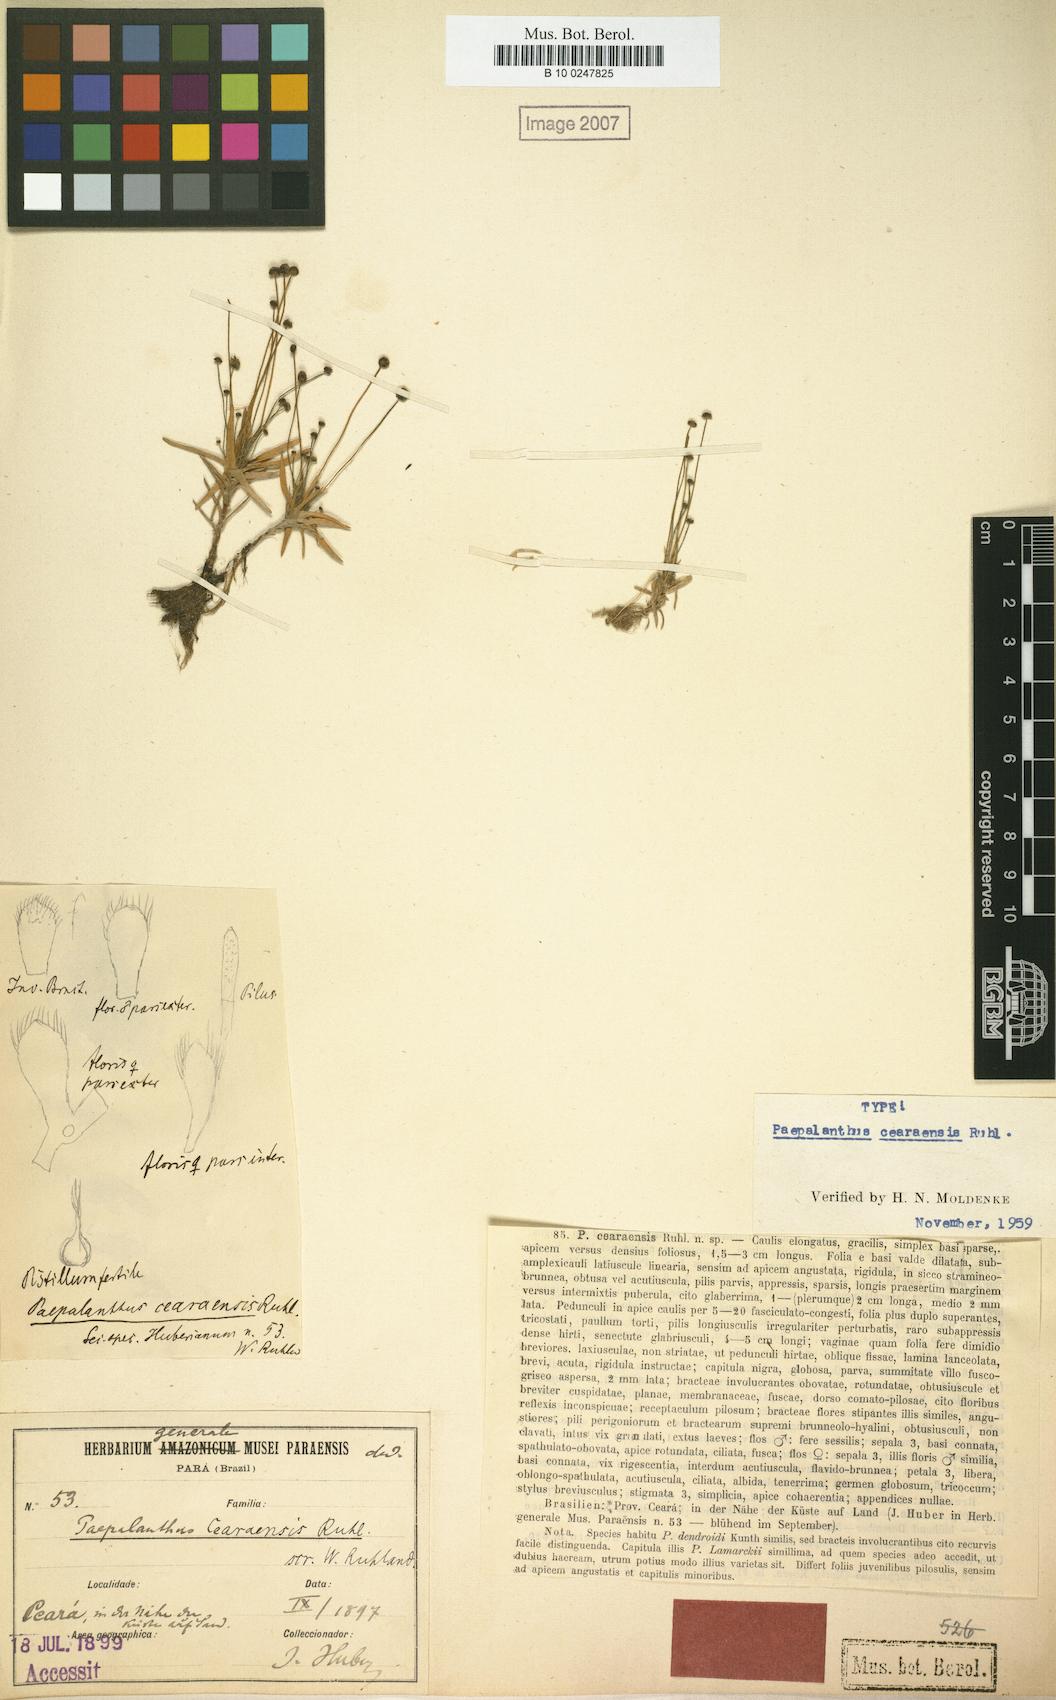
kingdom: Plantae
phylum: Tracheophyta
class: Liliopsida
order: Poales
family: Eriocaulaceae
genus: Paepalanthus
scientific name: Paepalanthus lamarckii
